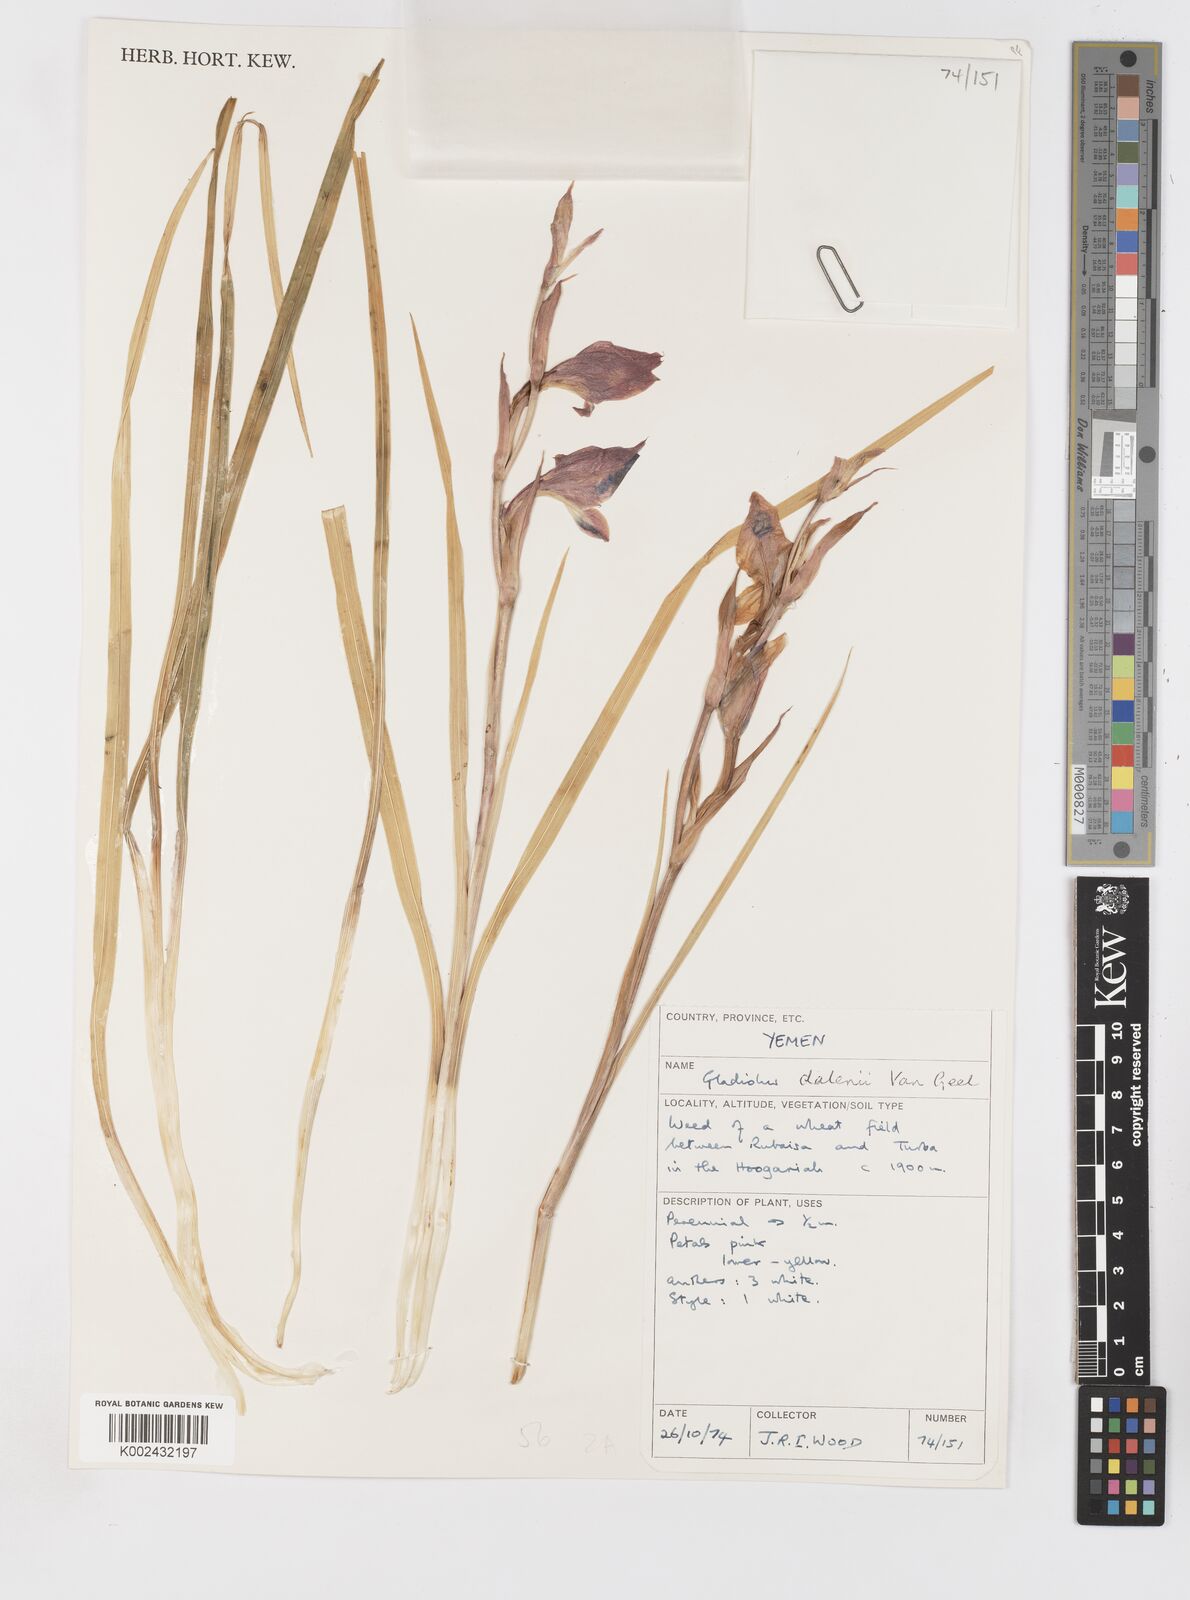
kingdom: Plantae
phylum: Tracheophyta
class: Liliopsida
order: Asparagales
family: Iridaceae
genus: Gladiolus
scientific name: Gladiolus dalenii
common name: Cornflag
